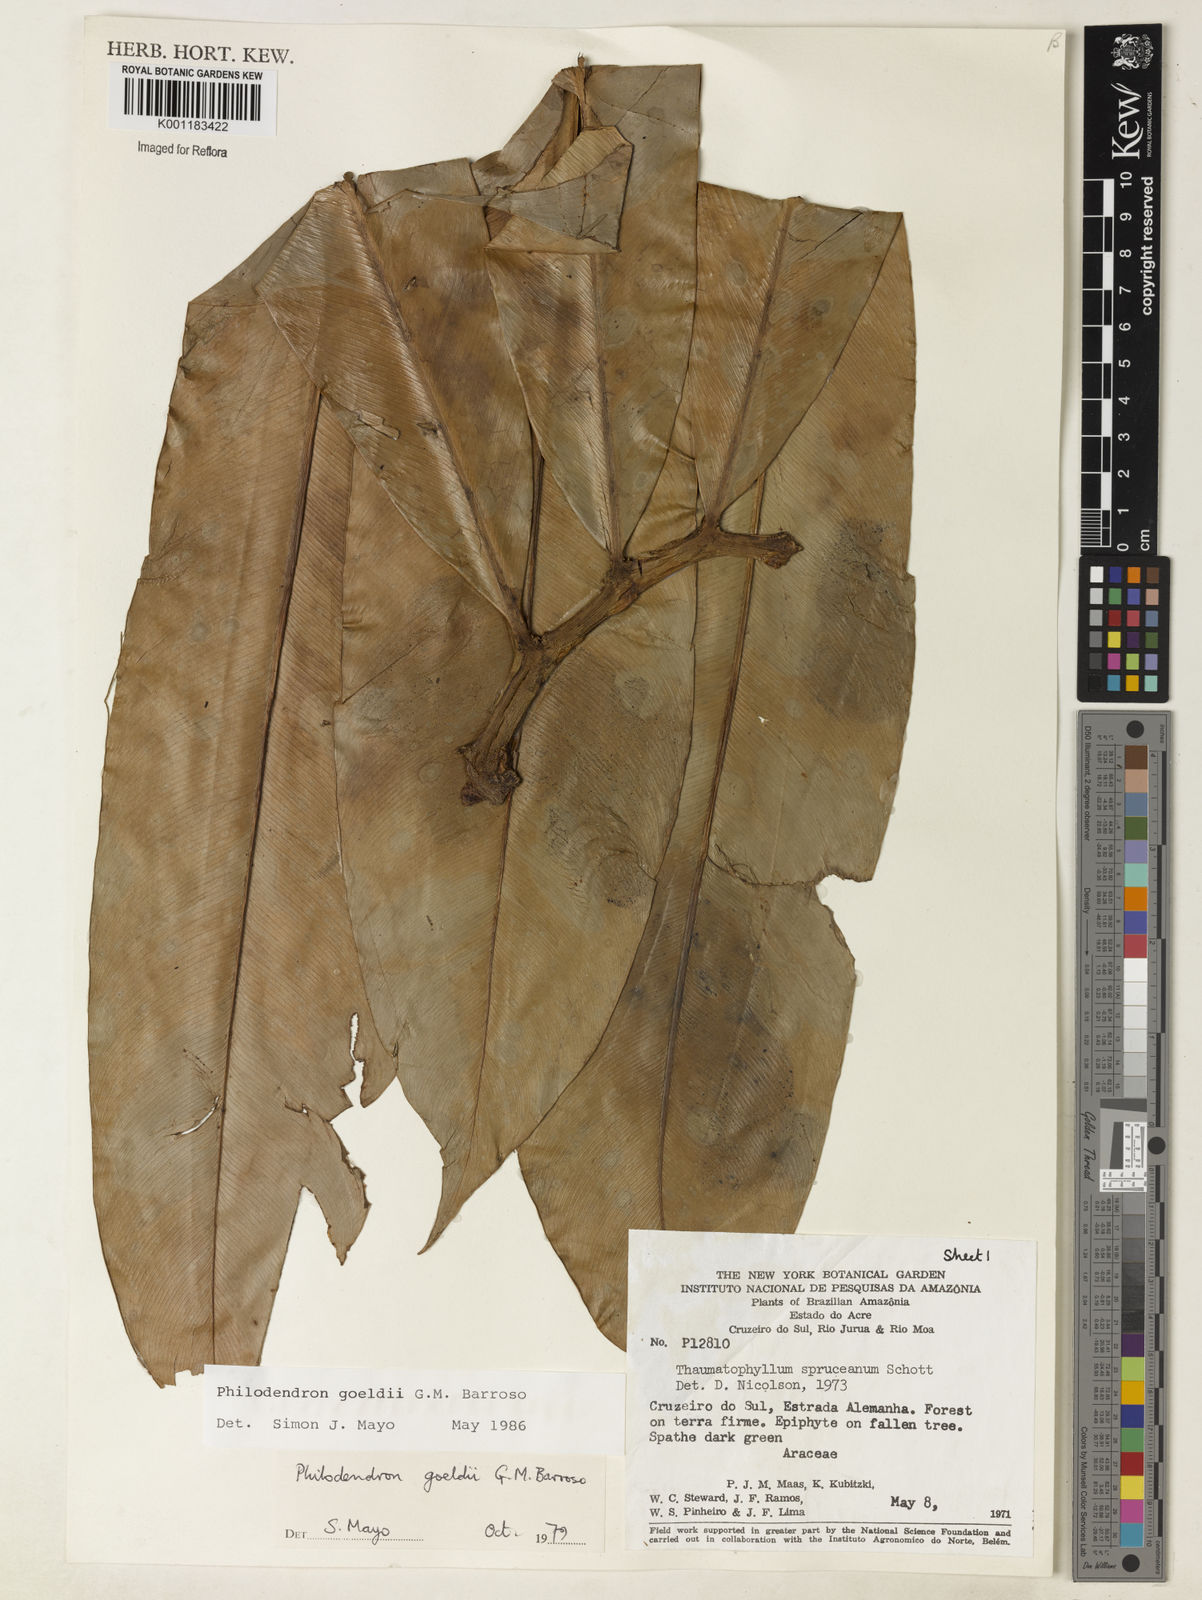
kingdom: Plantae
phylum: Tracheophyta
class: Liliopsida
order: Alismatales
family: Araceae
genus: Thaumatophyllum
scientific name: Thaumatophyllum spruceanum
